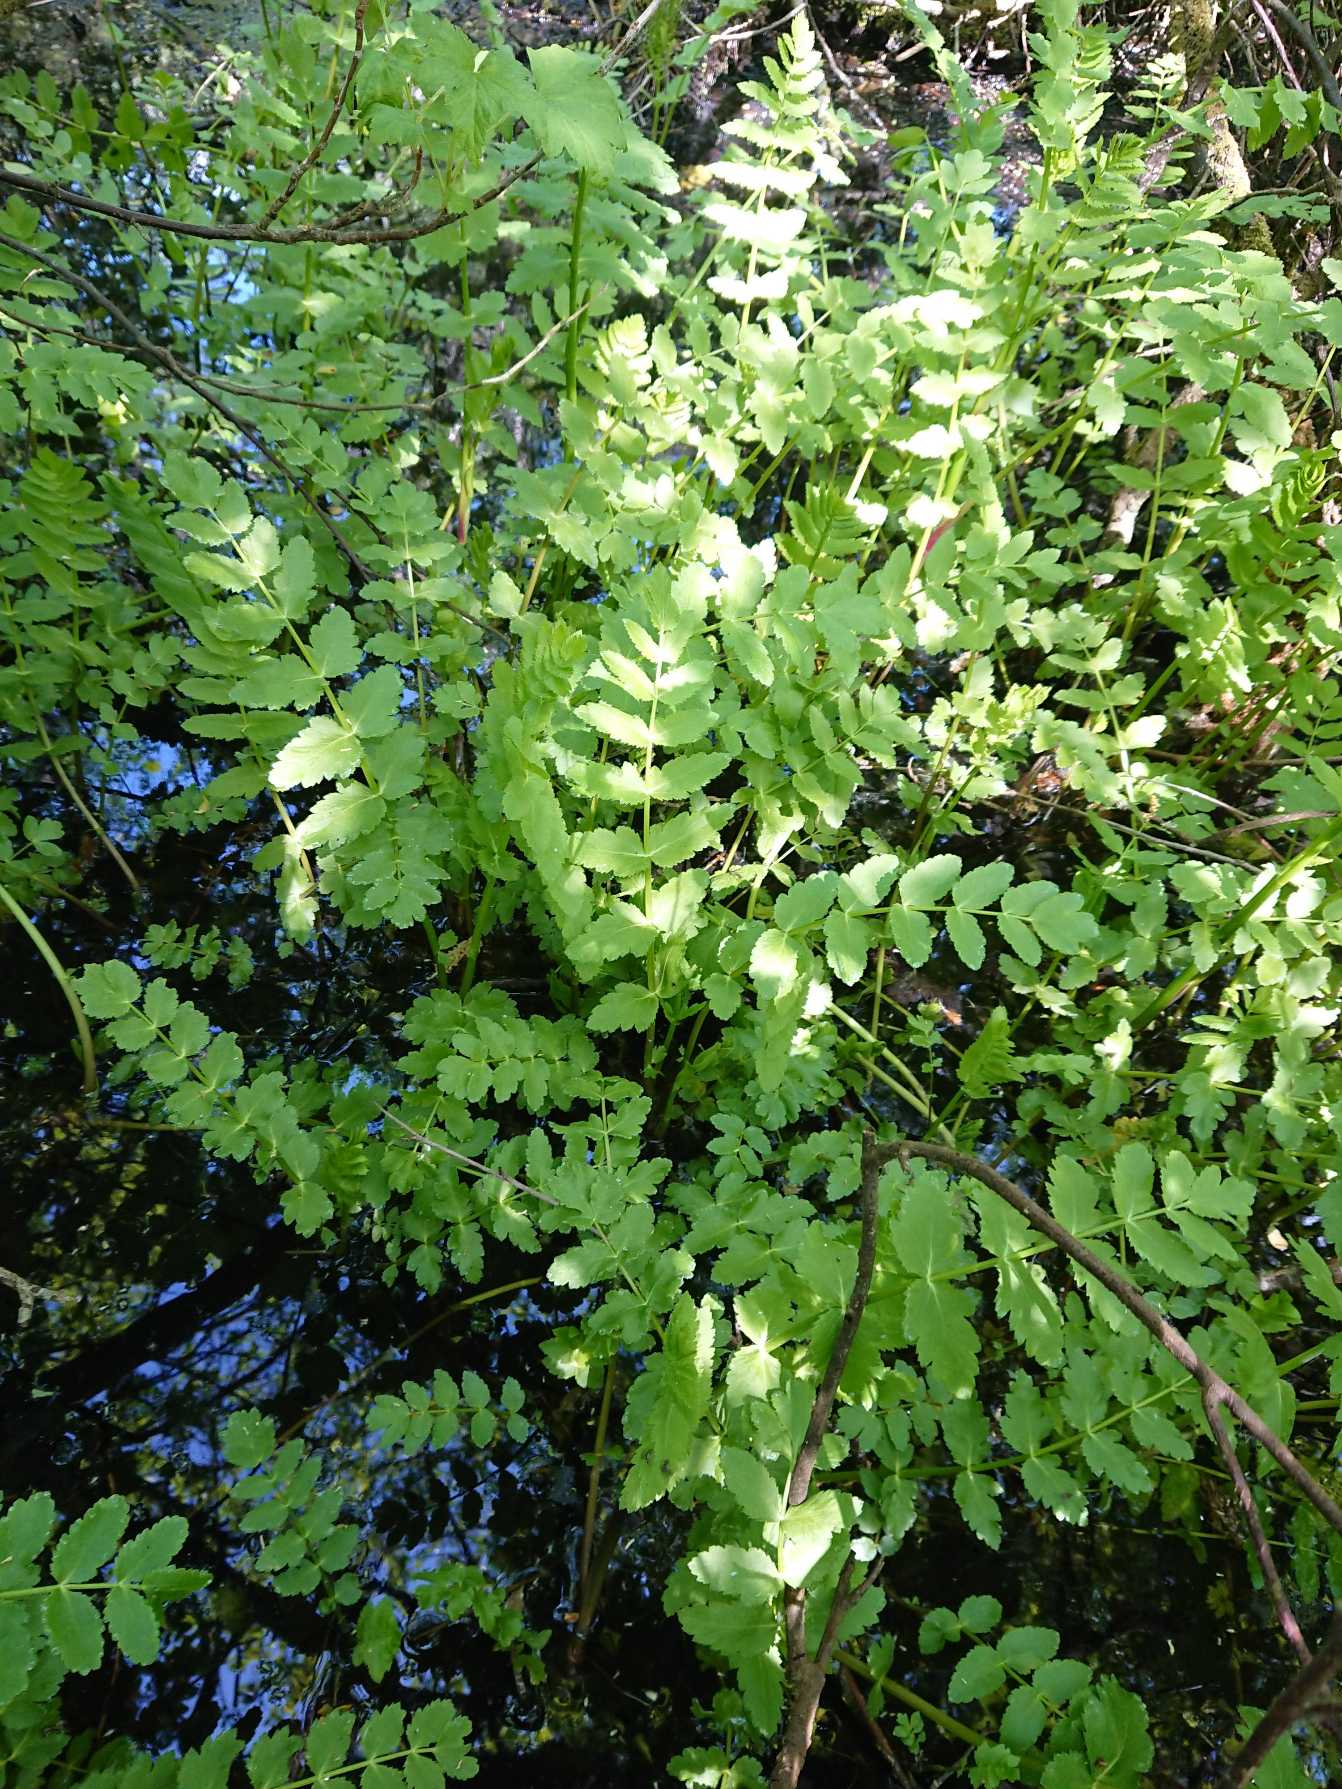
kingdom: Plantae
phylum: Tracheophyta
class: Magnoliopsida
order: Apiales
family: Apiaceae
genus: Berula
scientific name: Berula erecta
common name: Sideskærm
